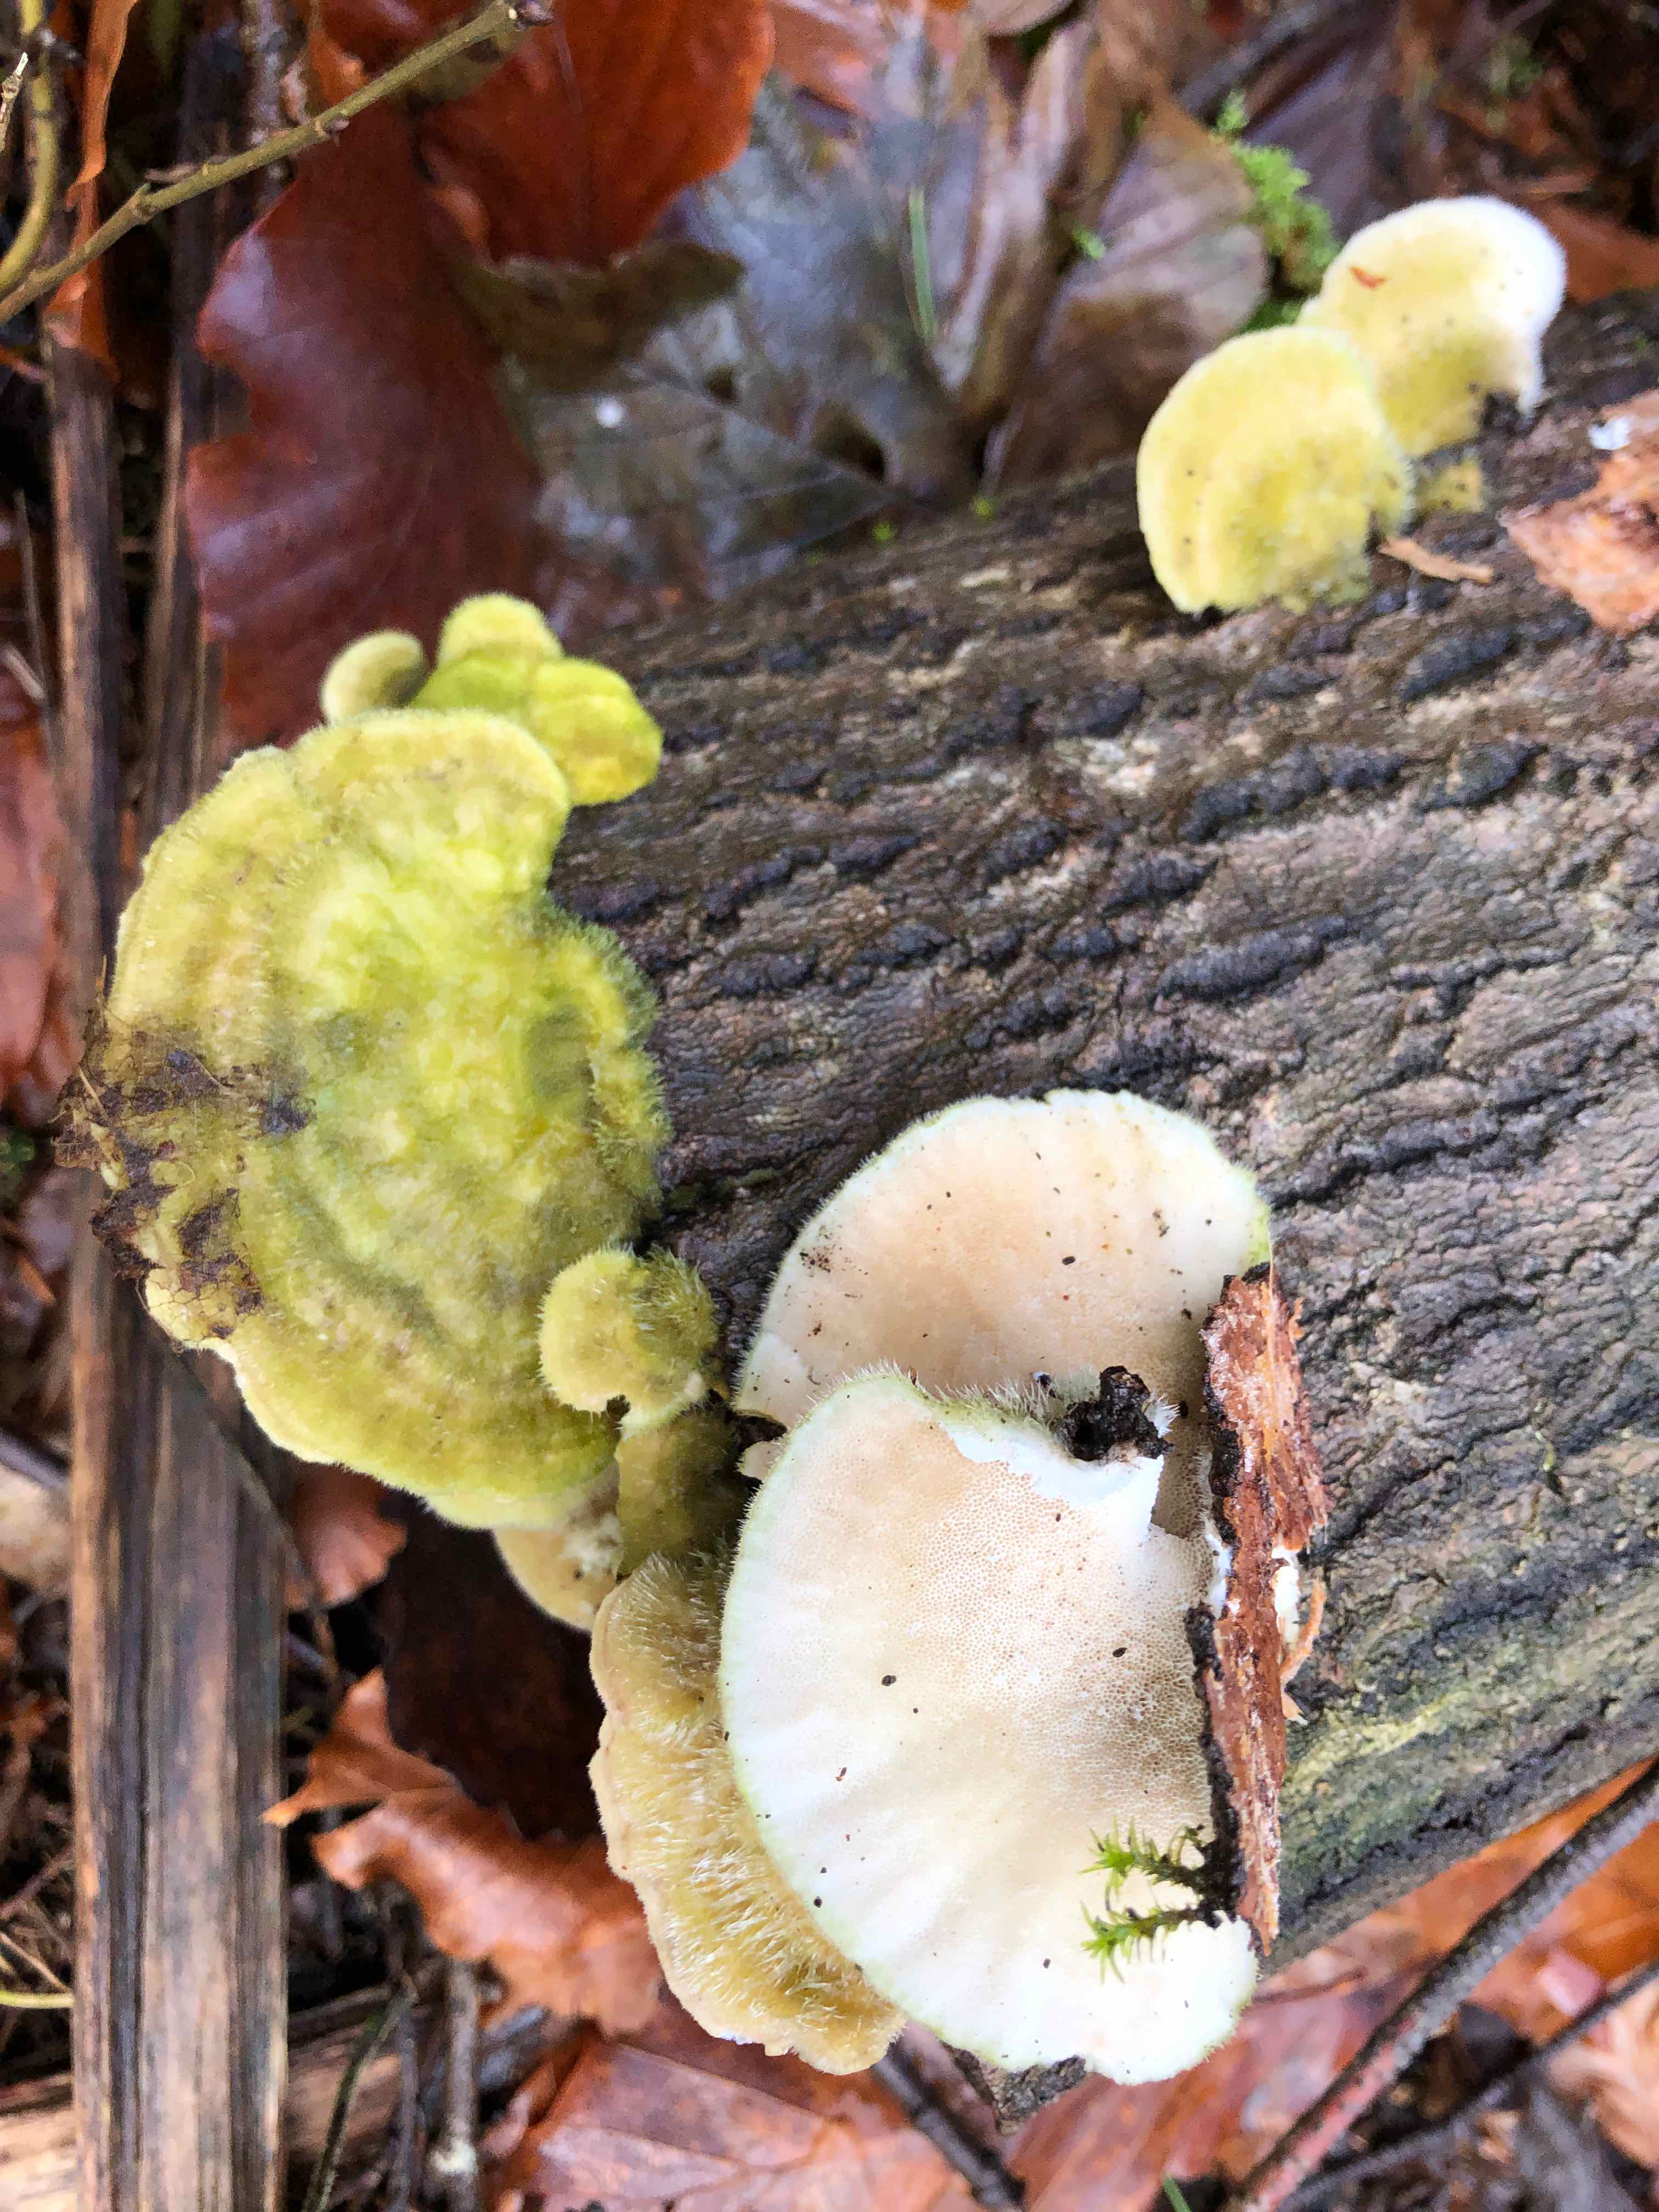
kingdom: Fungi
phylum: Basidiomycota
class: Agaricomycetes
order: Polyporales
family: Polyporaceae
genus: Trametes
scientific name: Trametes hirsuta
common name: håret læderporesvamp
